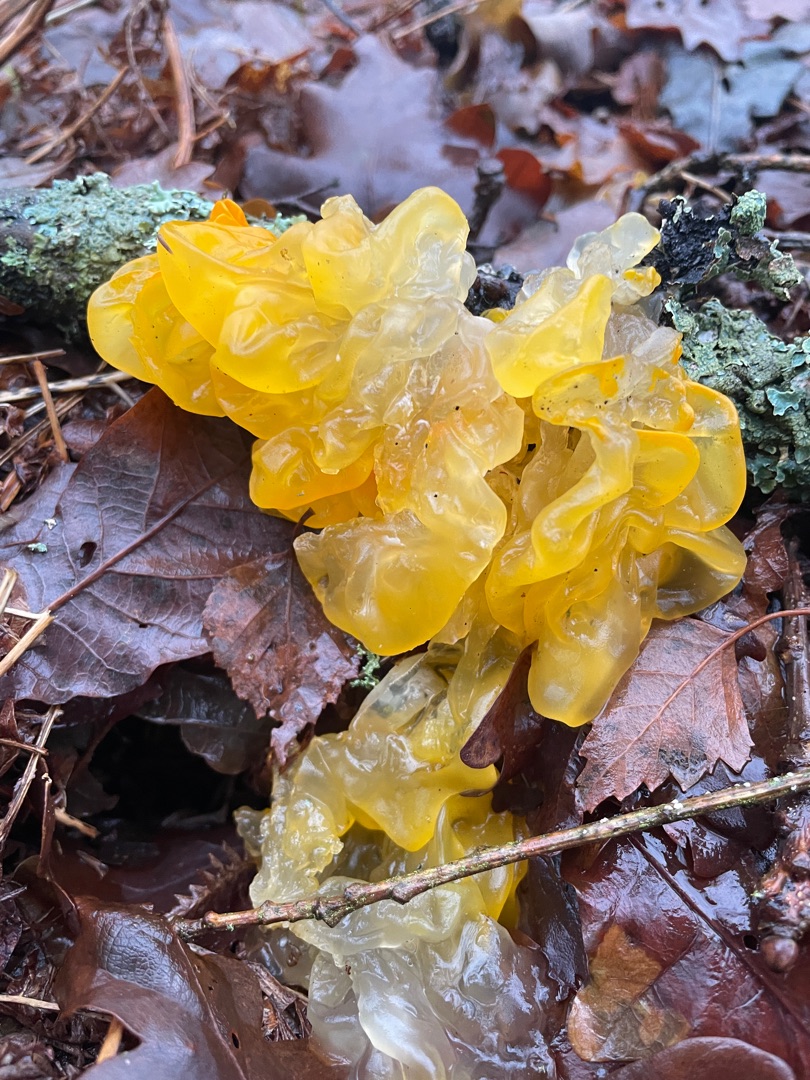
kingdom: Fungi
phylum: Basidiomycota
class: Tremellomycetes
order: Tremellales
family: Tremellaceae
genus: Tremella
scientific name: Tremella mesenterica
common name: Gul bævresvamp
